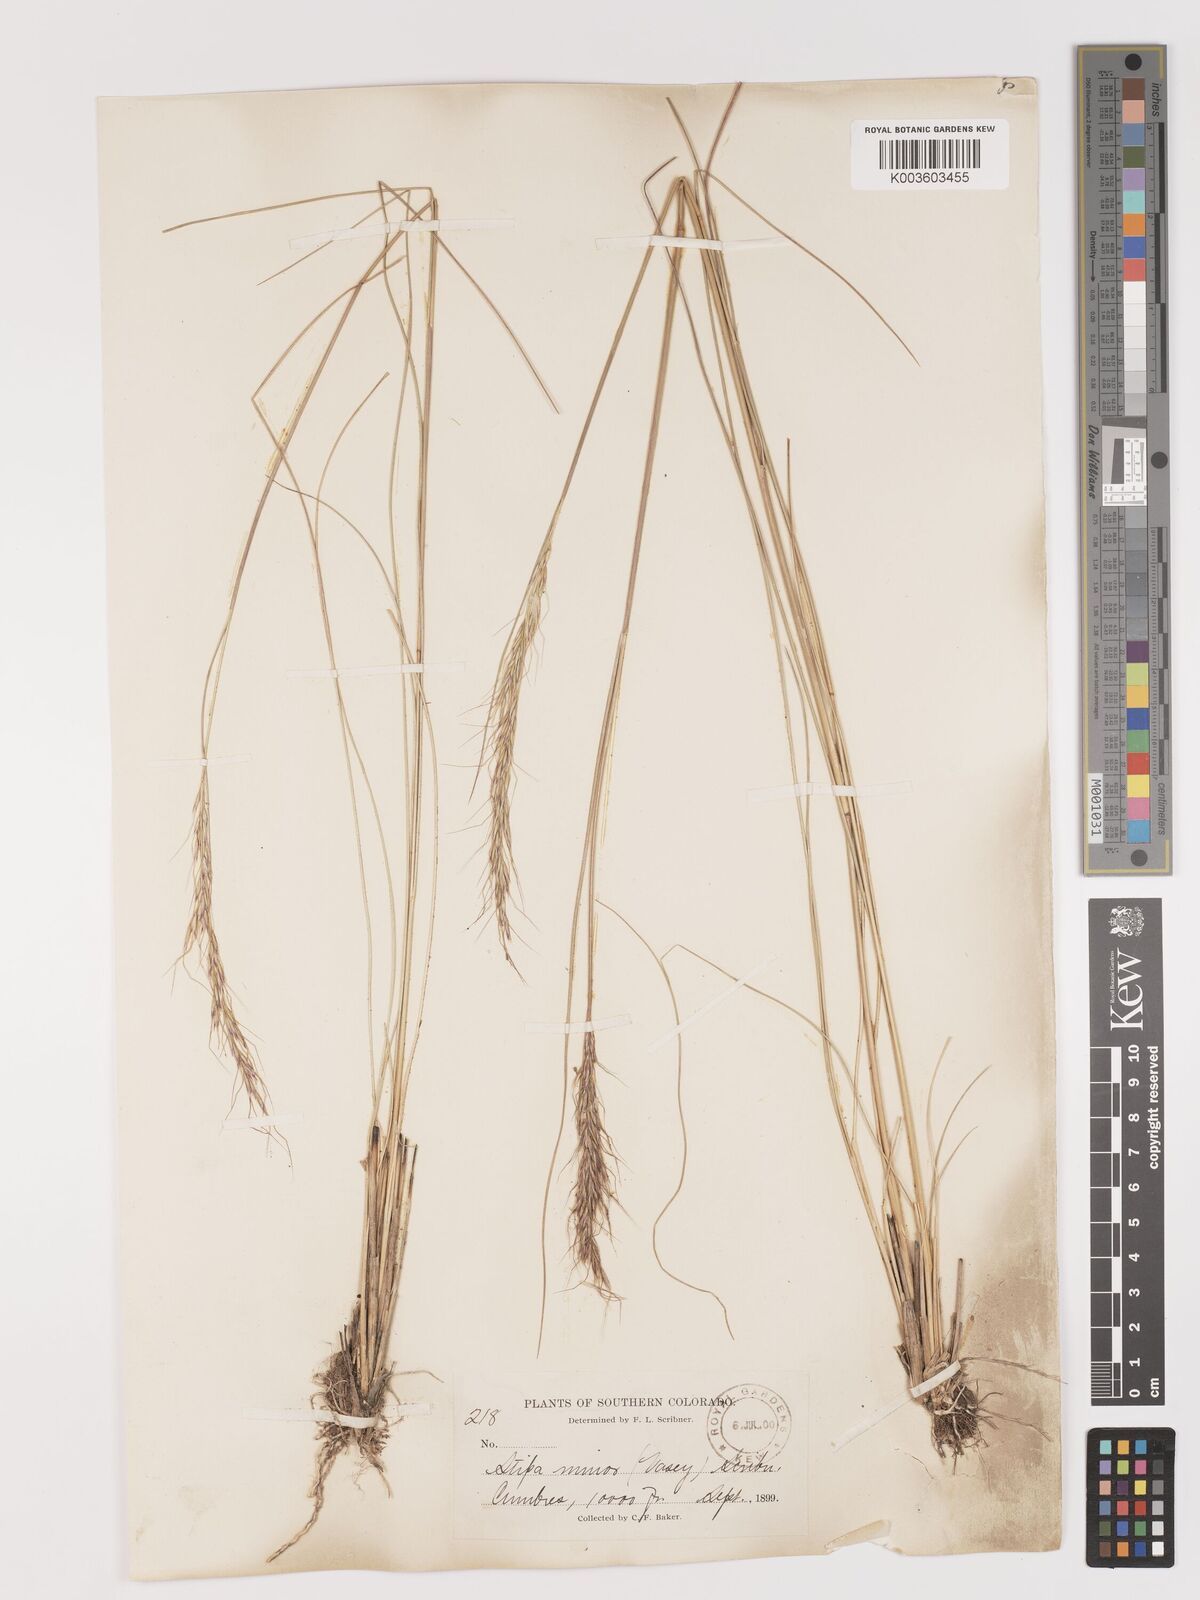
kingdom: Plantae
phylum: Tracheophyta
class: Liliopsida
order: Poales
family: Poaceae
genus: Eriocoma
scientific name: Eriocoma nelsonii
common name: Nelson's needlegrass
